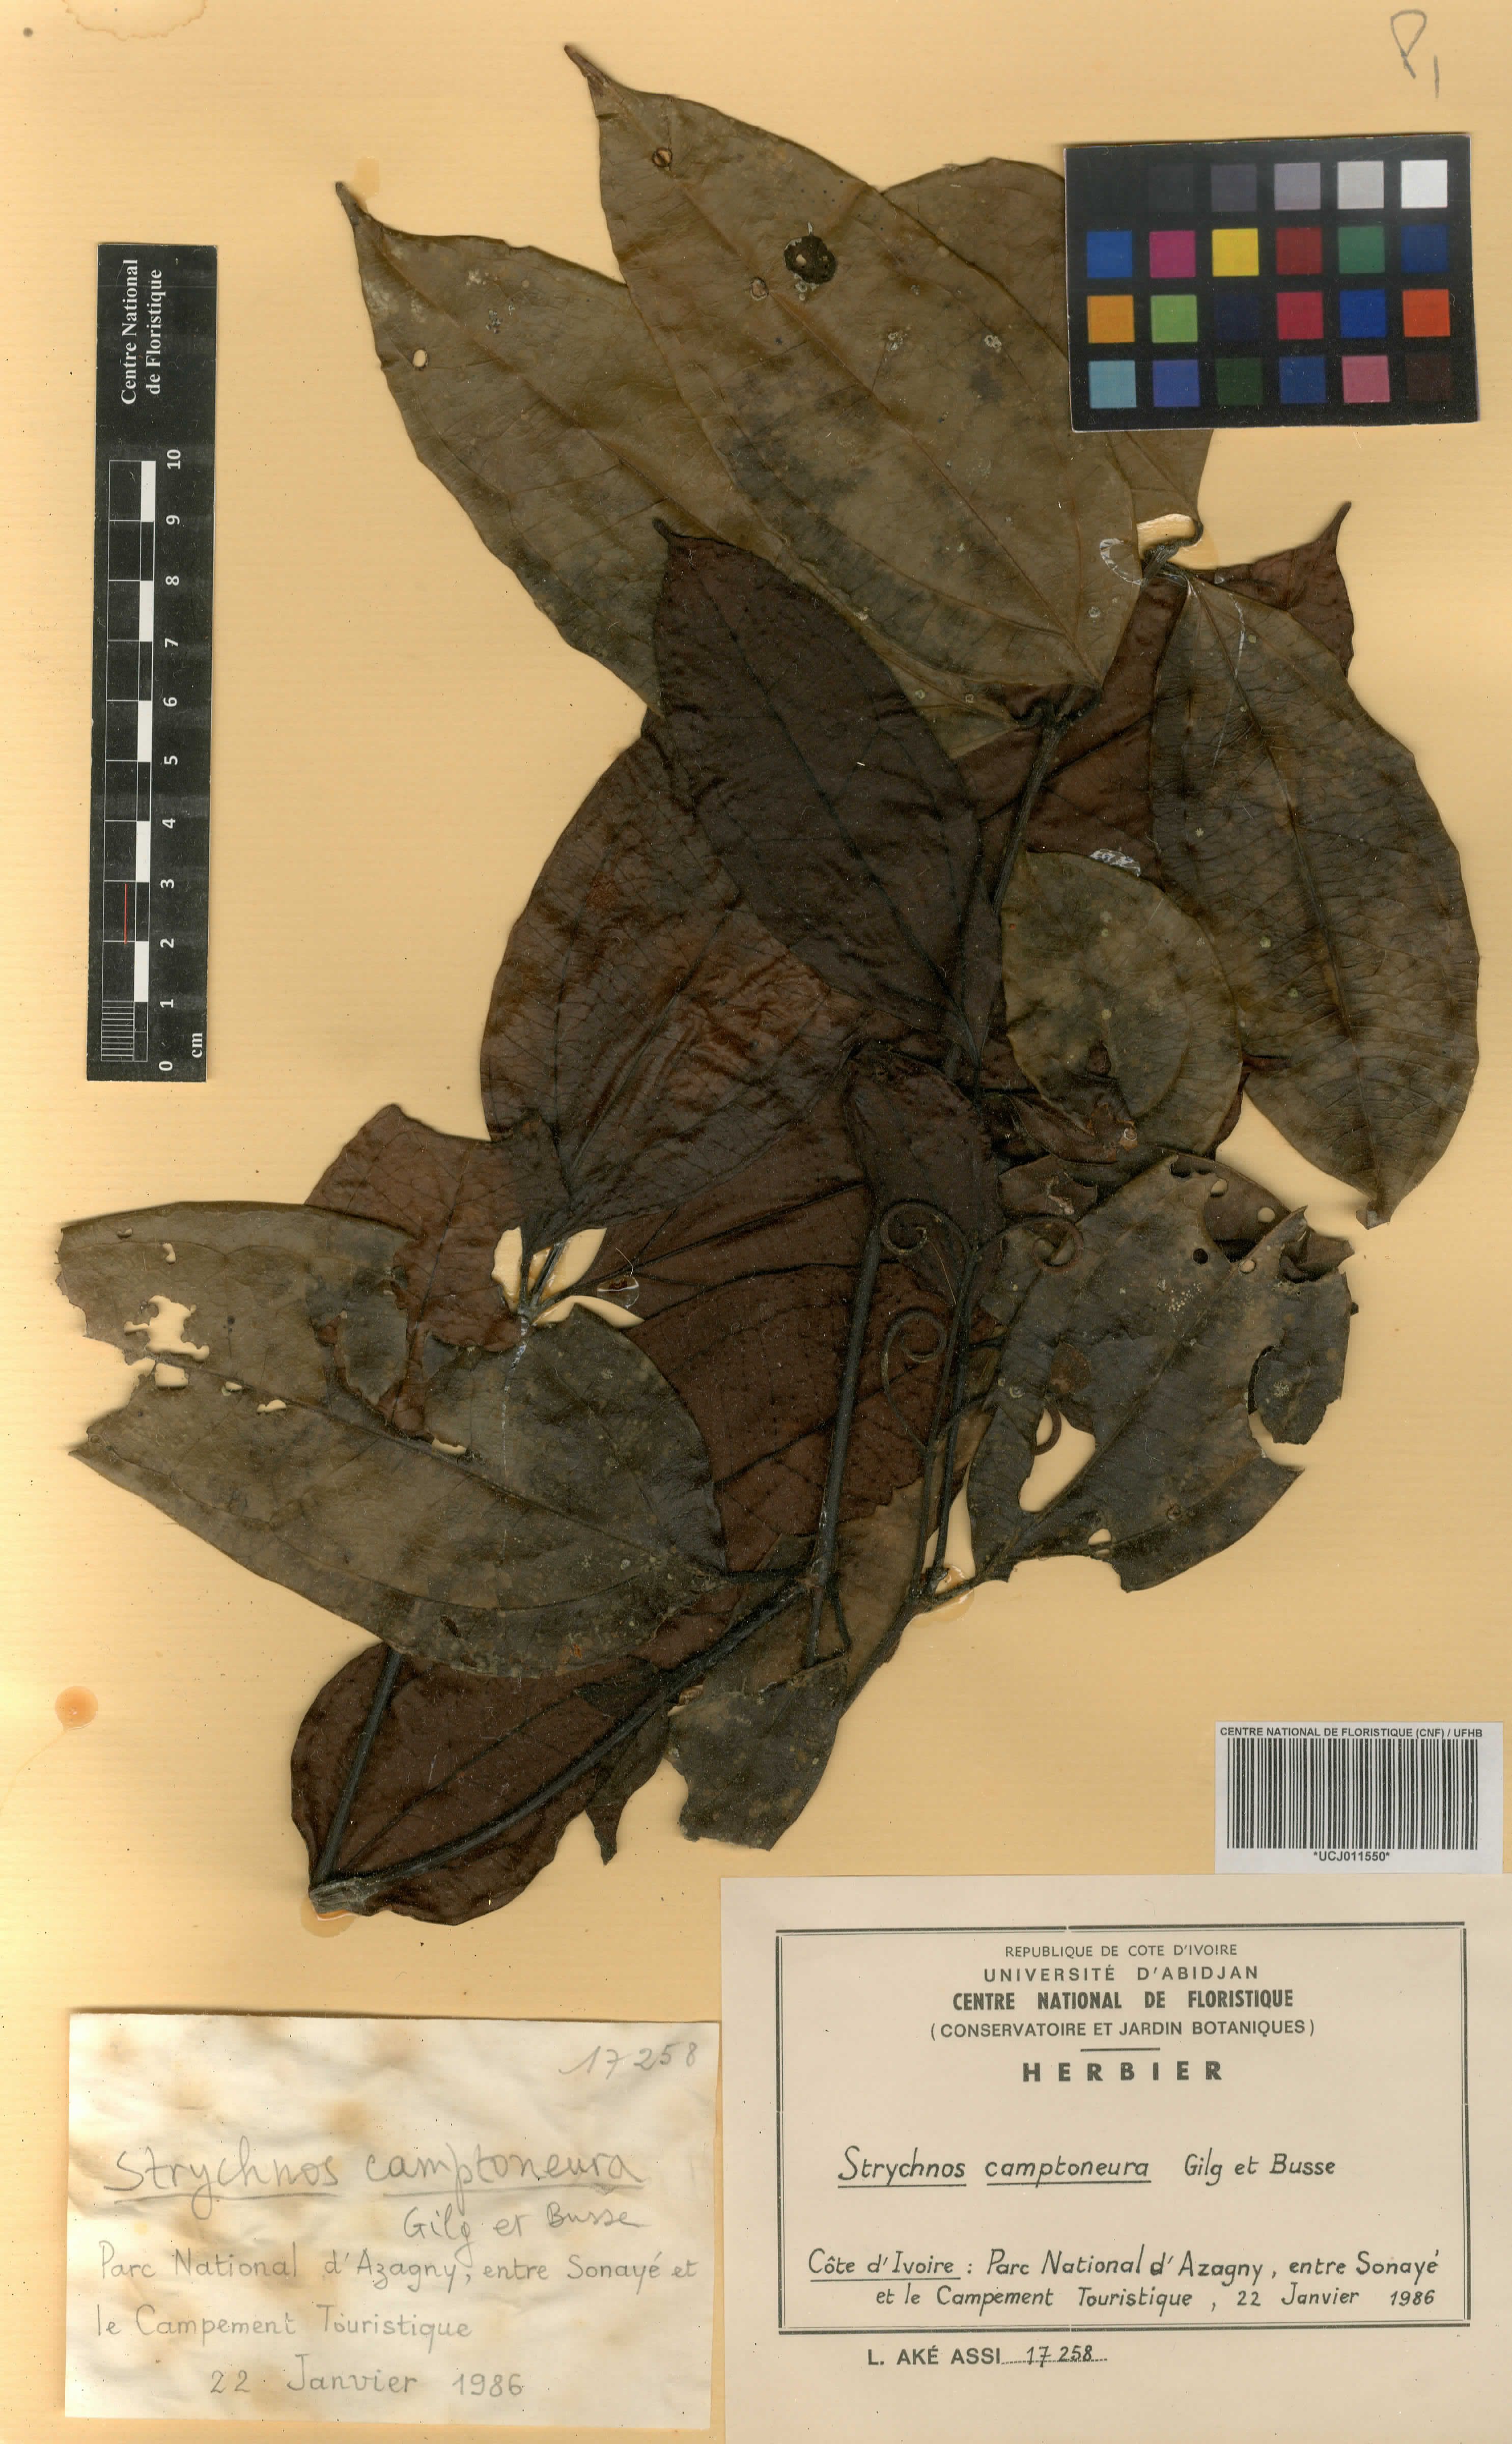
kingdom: Plantae
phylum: Tracheophyta
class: Magnoliopsida
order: Gentianales
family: Loganiaceae
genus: Strychnos
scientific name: Strychnos camptoneura
